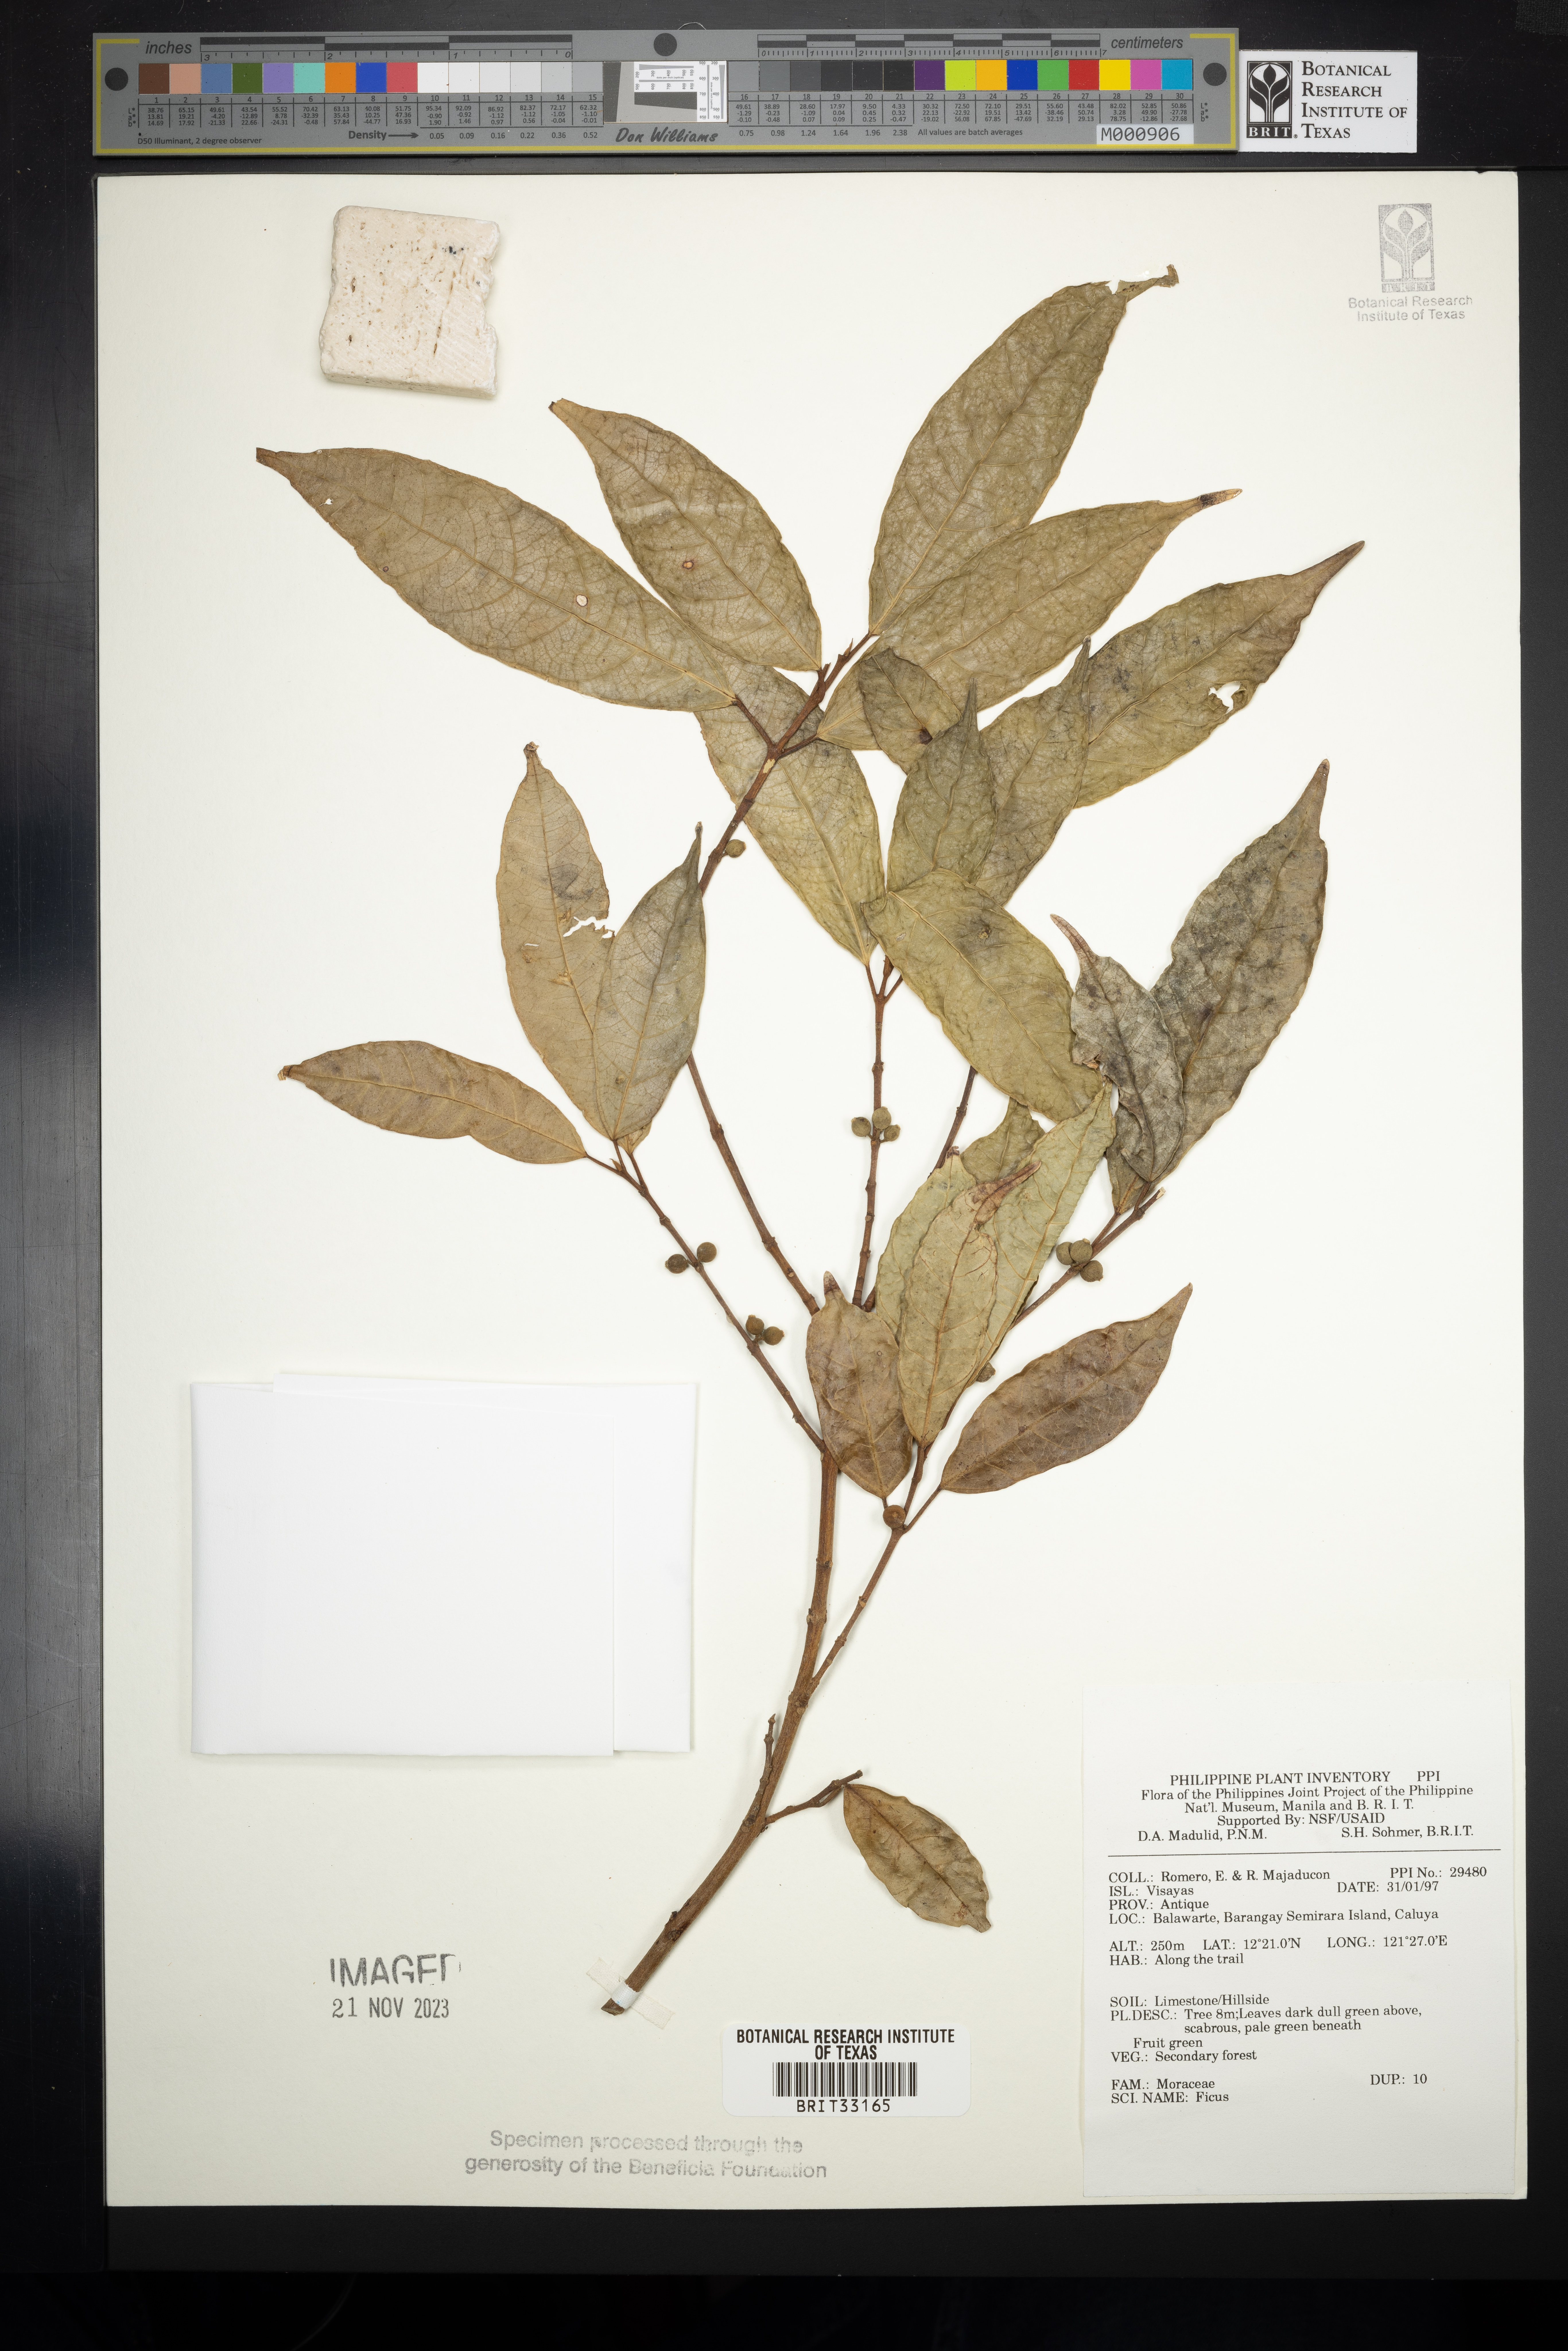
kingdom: Plantae
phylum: Tracheophyta
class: Magnoliopsida
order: Rosales
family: Moraceae
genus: Ficus
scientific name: Ficus
